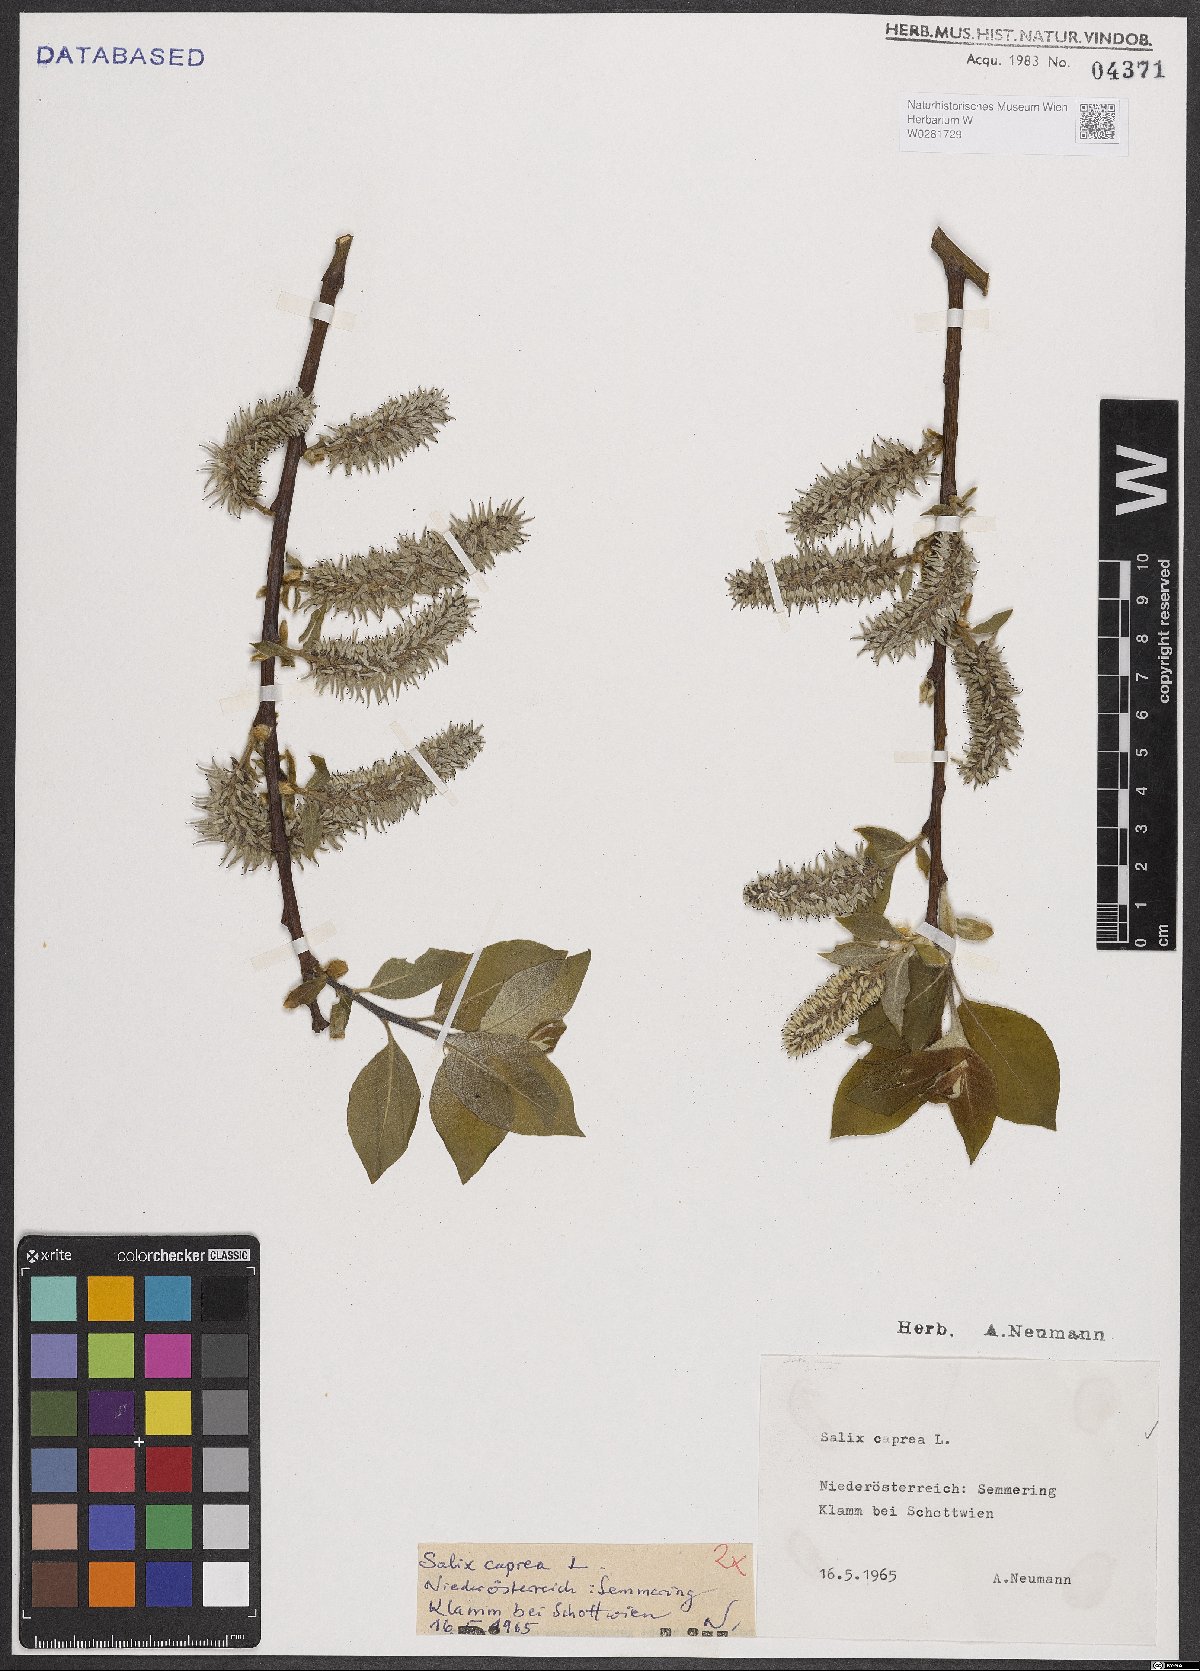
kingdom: Plantae
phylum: Tracheophyta
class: Magnoliopsida
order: Malpighiales
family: Salicaceae
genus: Salix
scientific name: Salix caprea
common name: Goat willow
